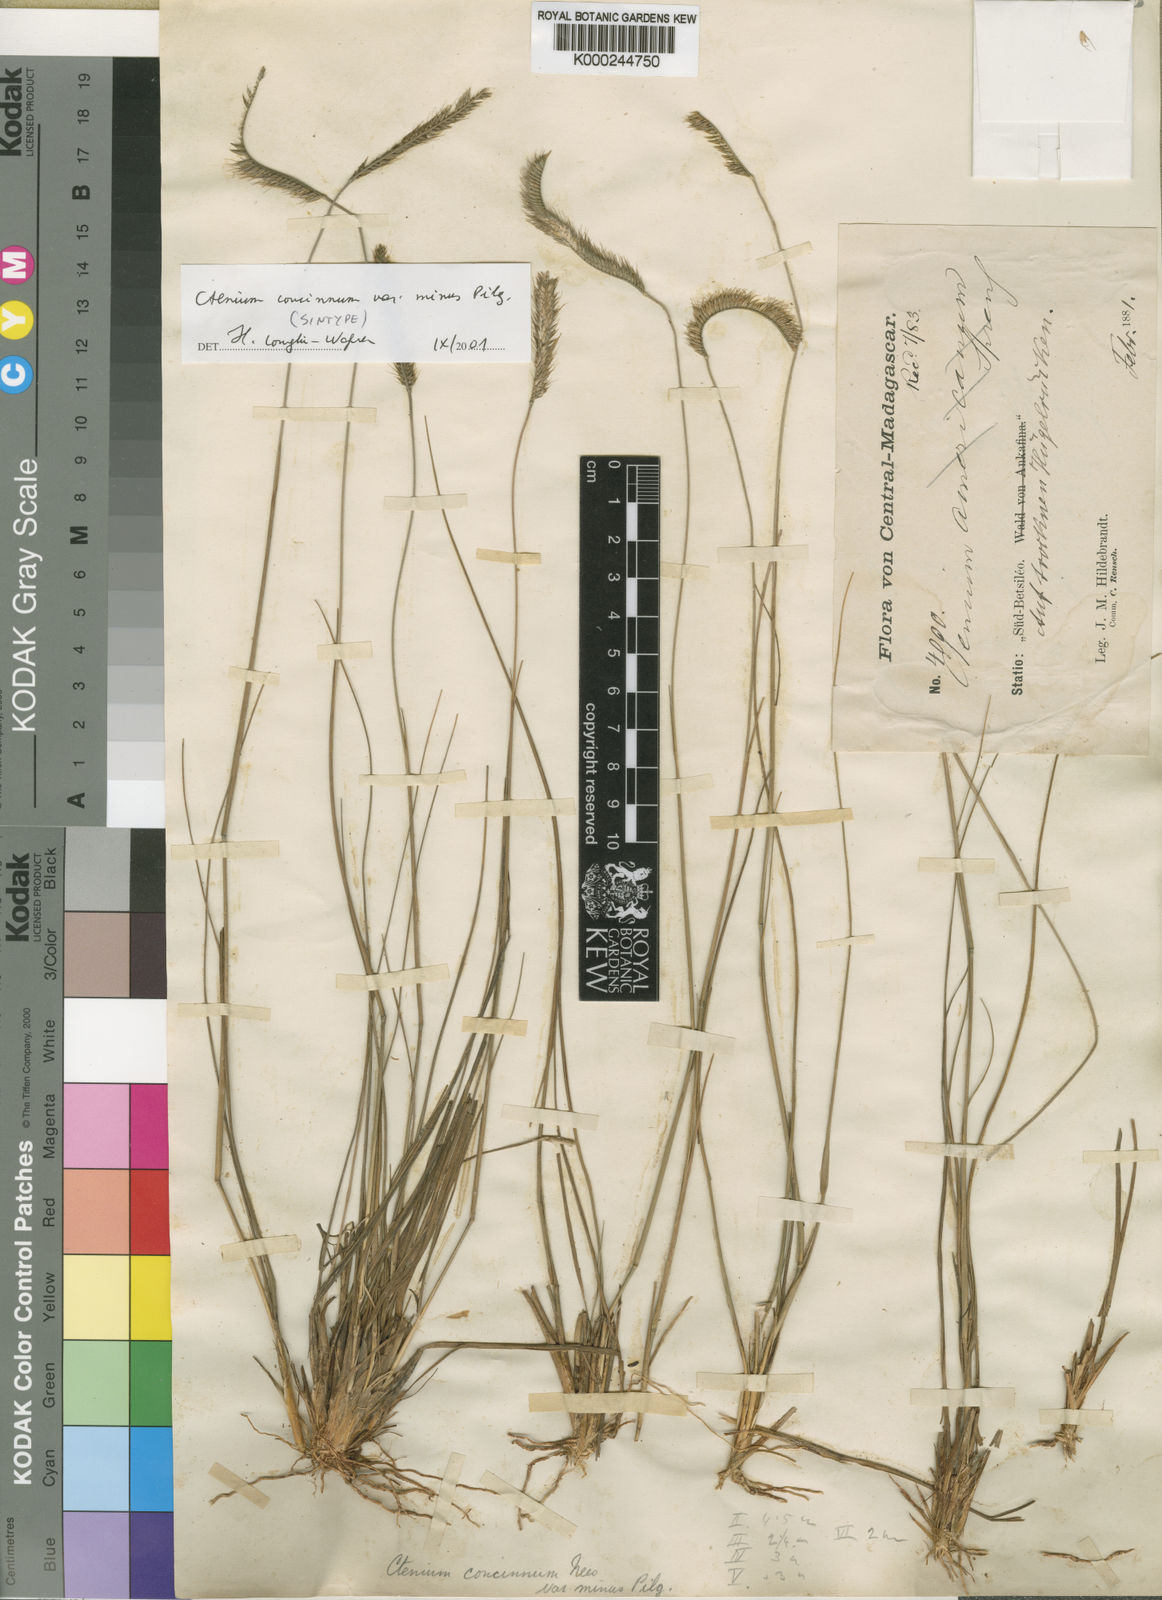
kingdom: Plantae
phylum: Tracheophyta
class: Liliopsida
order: Poales
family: Poaceae
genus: Ctenium
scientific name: Ctenium concinnum
